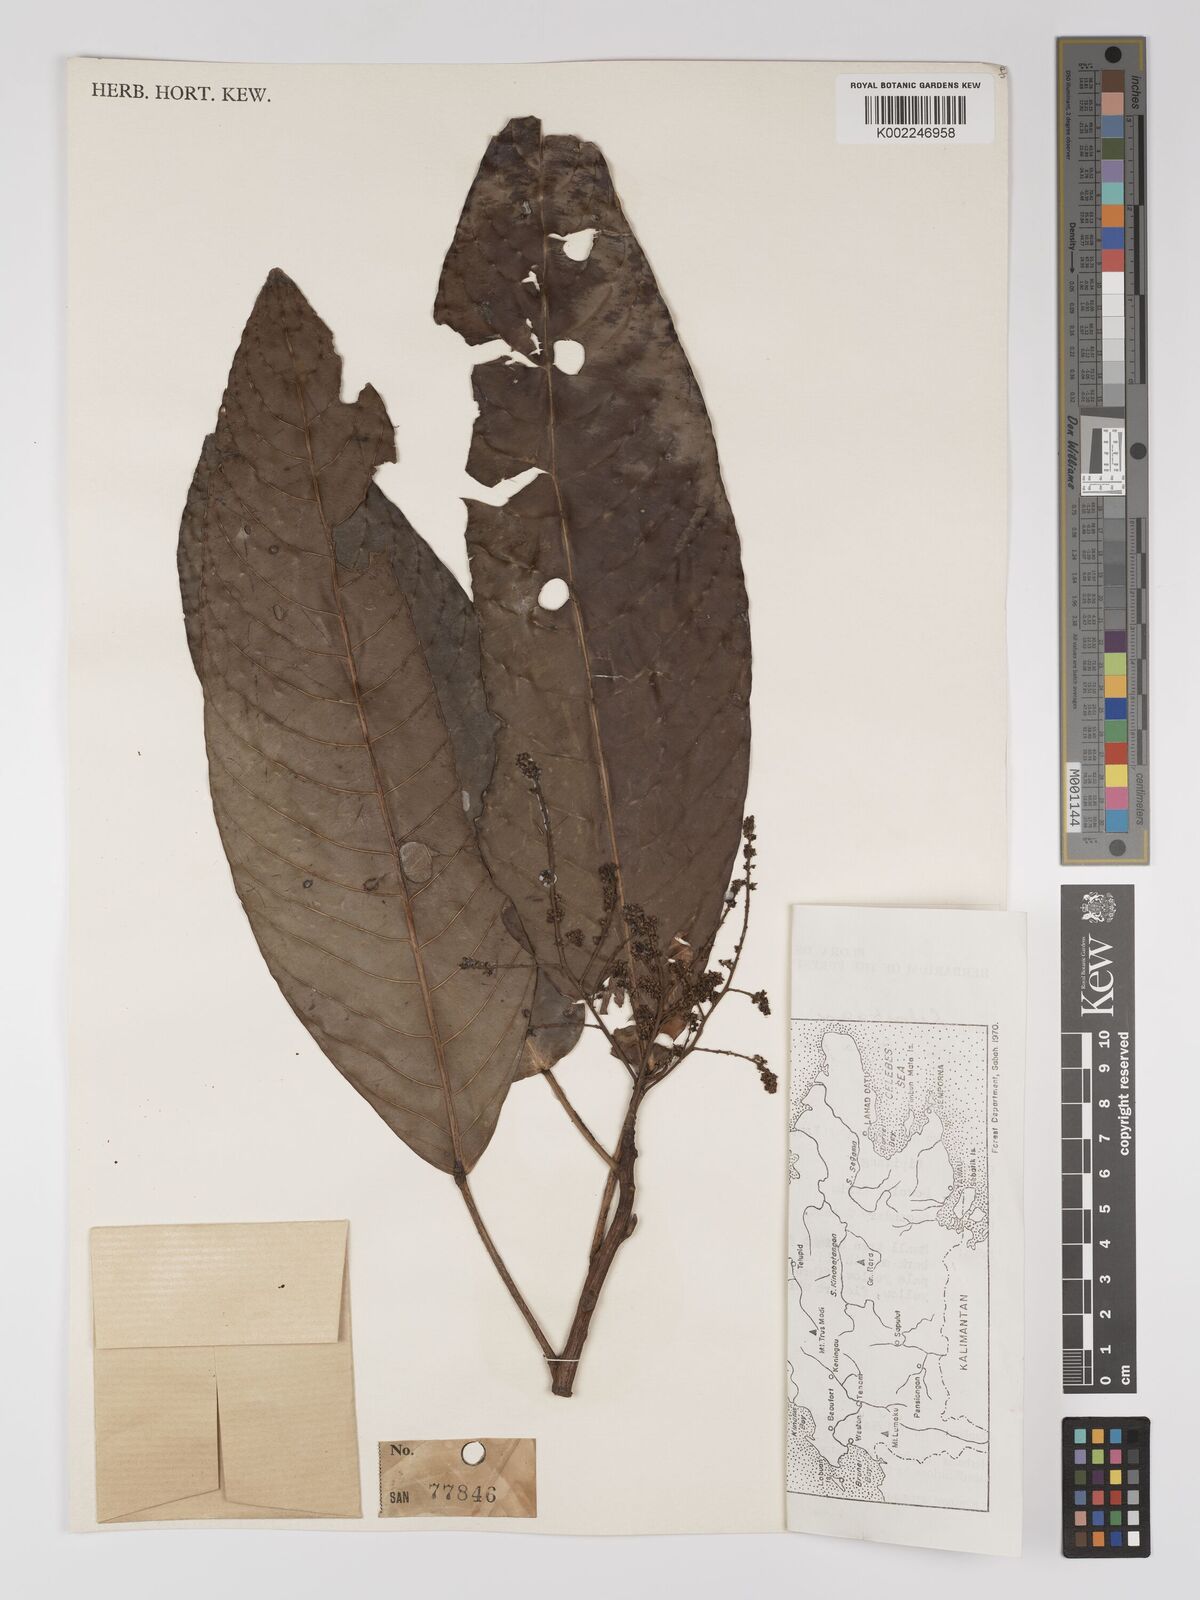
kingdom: Plantae
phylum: Tracheophyta
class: Magnoliopsida
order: Malpighiales
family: Centroplacaceae
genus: Bhesa
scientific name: Bhesa paniculata
